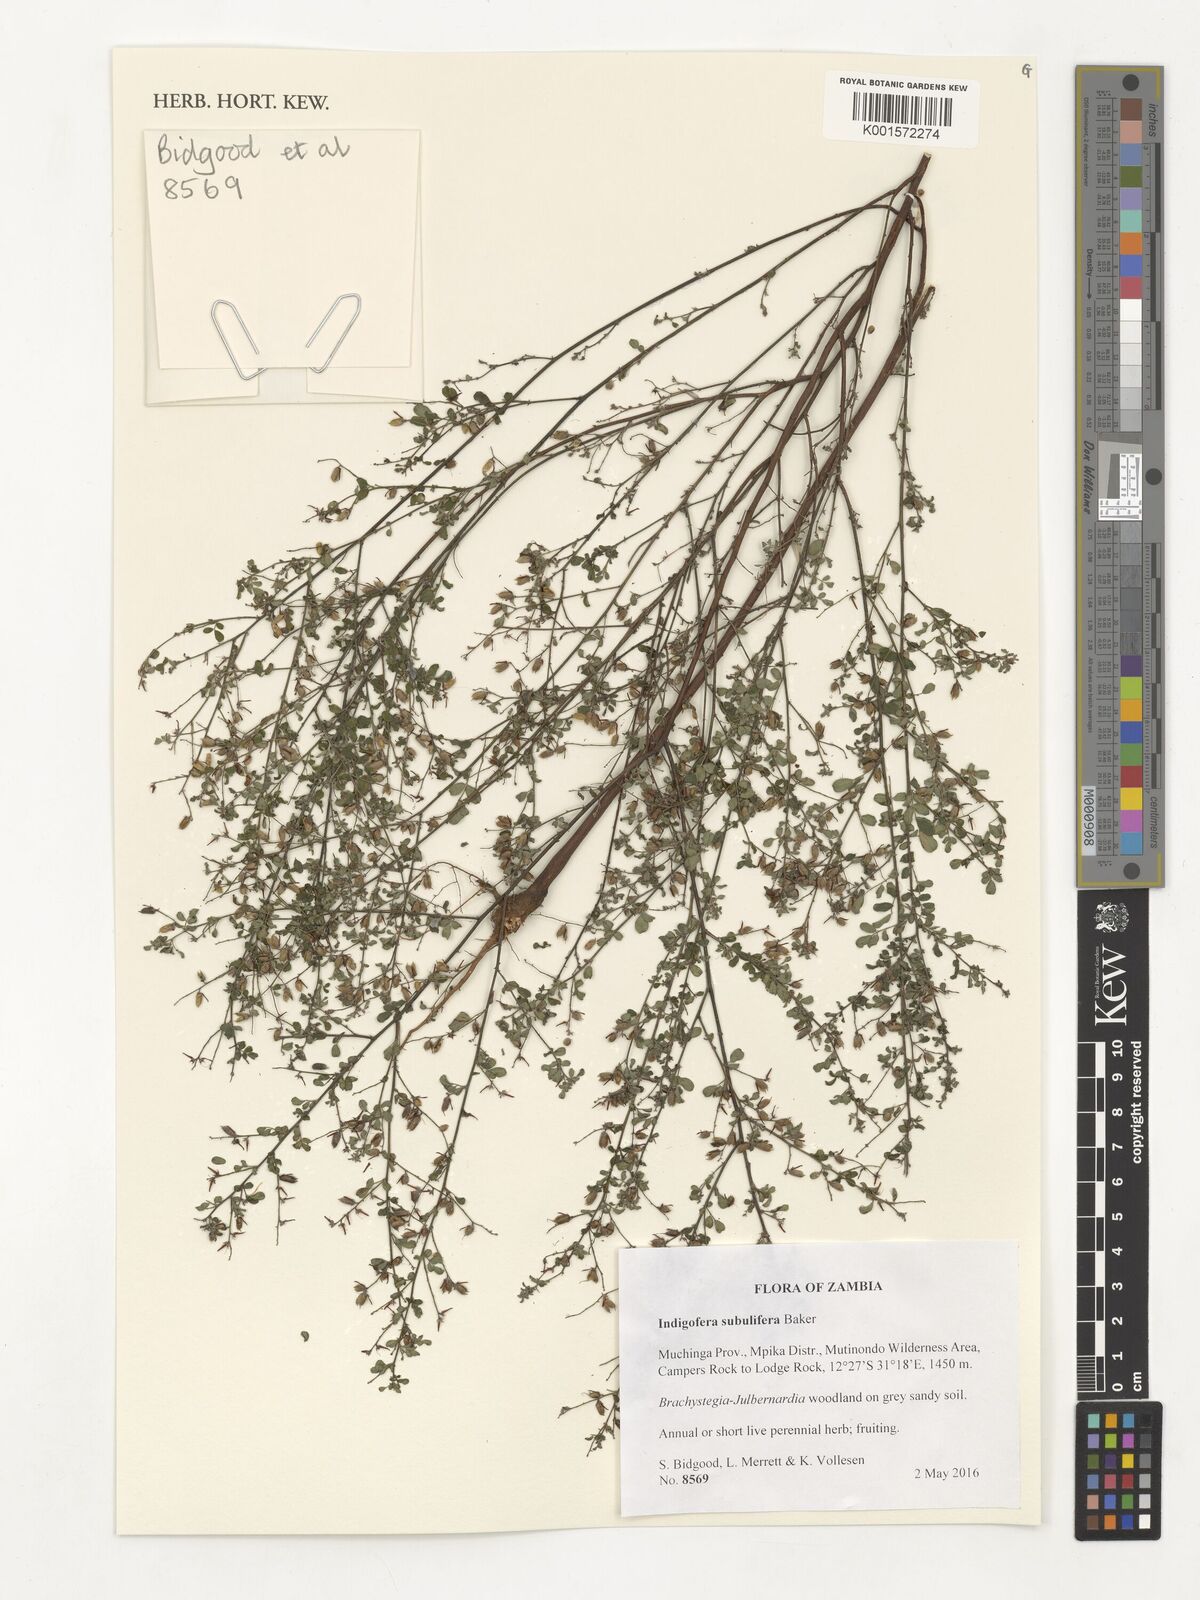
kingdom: Plantae
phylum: Tracheophyta
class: Magnoliopsida
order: Fabales
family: Fabaceae
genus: Indigofera
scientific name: Indigofera subulifera
